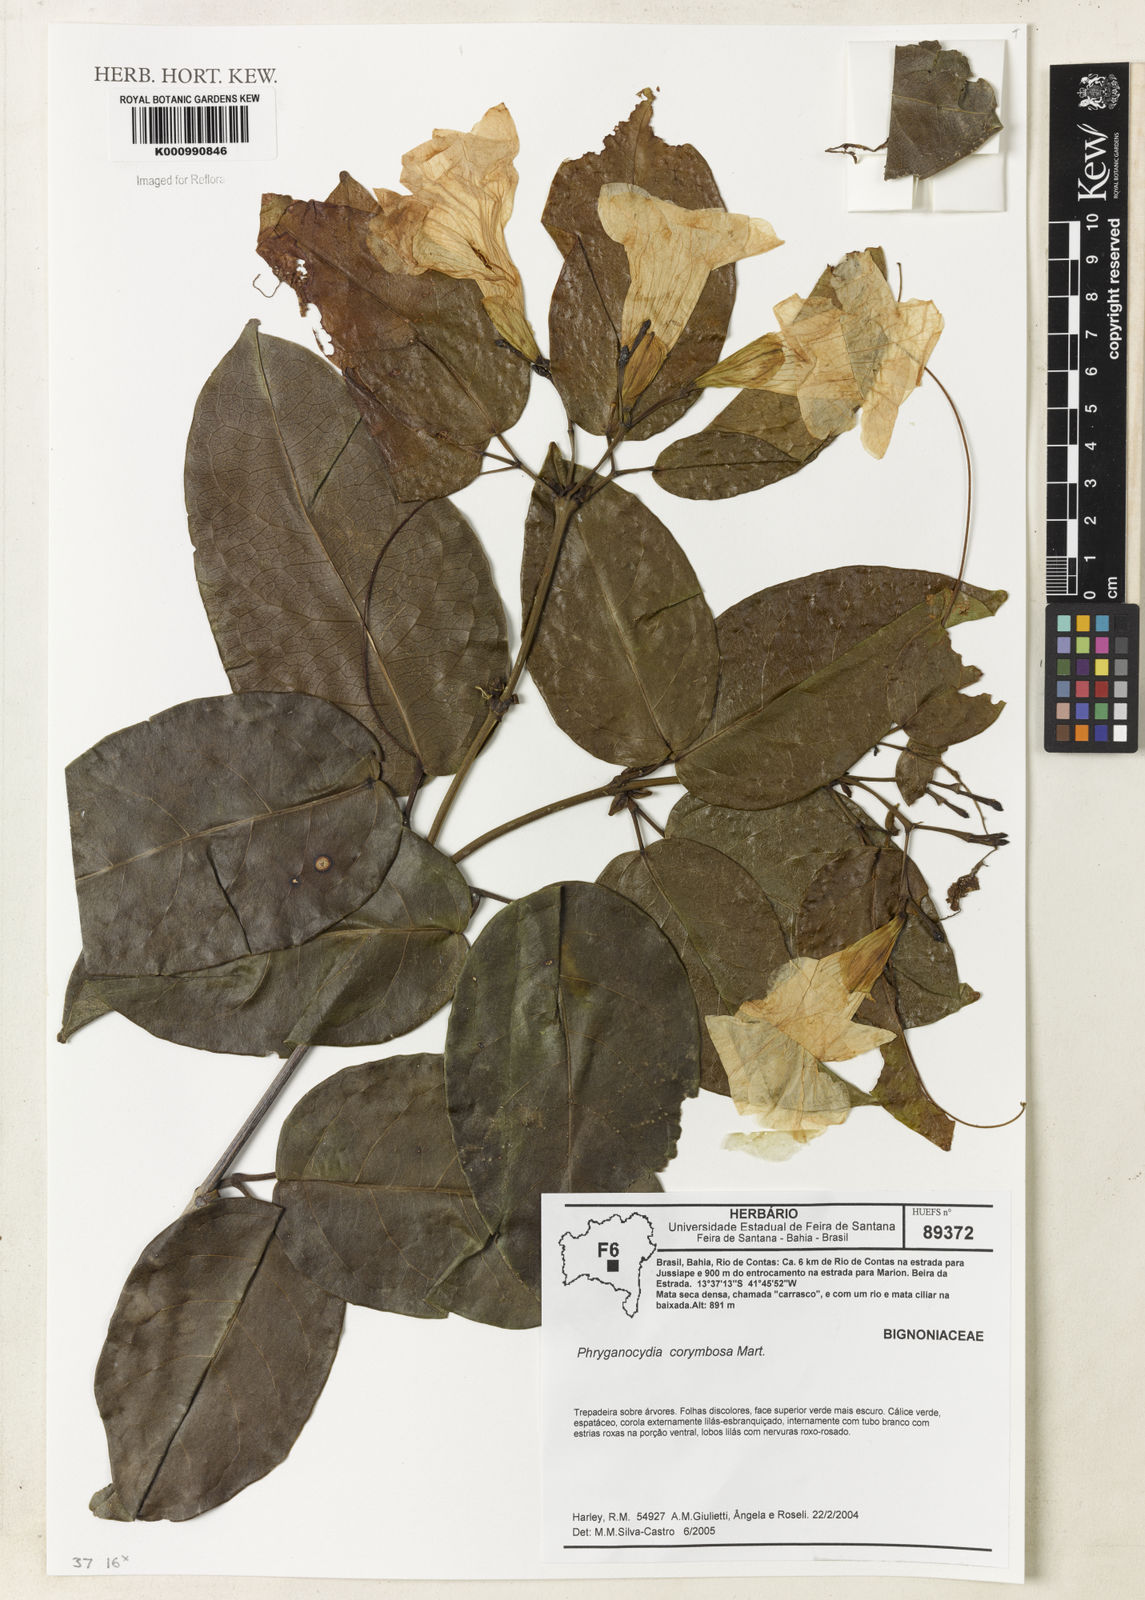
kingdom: Plantae
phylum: Tracheophyta
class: Magnoliopsida
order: Lamiales
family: Bignoniaceae
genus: Bignonia
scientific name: Bignonia corymbosa
